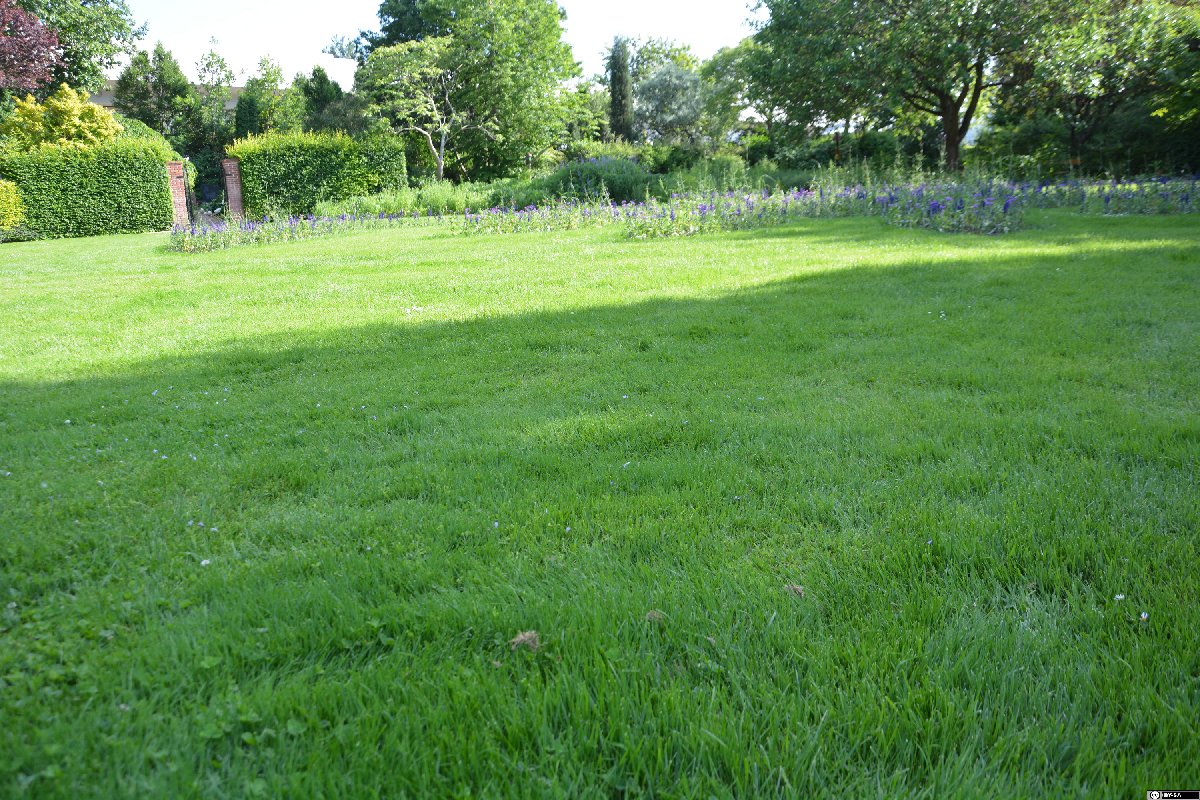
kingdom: Plantae
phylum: Tracheophyta
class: Magnoliopsida
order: Lamiales
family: Mazaceae
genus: Mazus
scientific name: Mazus miquelii
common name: Miquel's mazus
